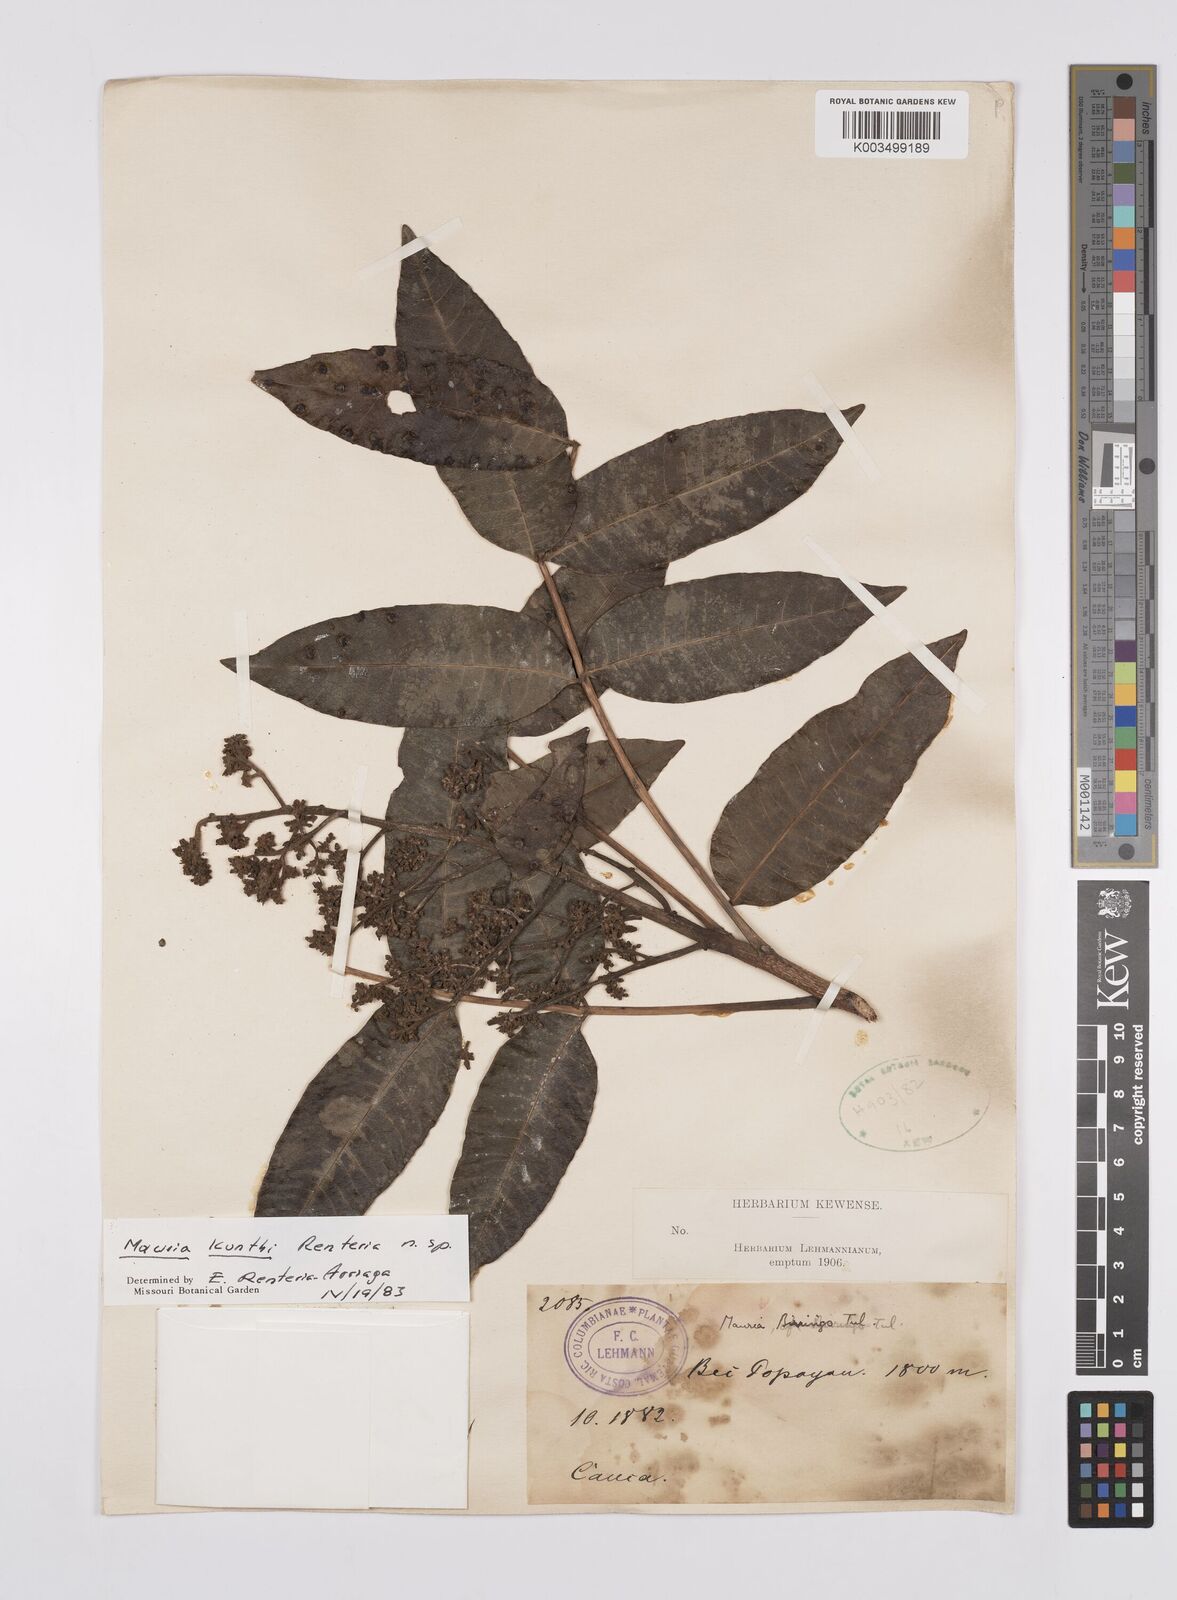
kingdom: Plantae
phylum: Tracheophyta
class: Magnoliopsida
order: Sapindales
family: Anacardiaceae
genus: Mauria
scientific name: Mauria kunthii
